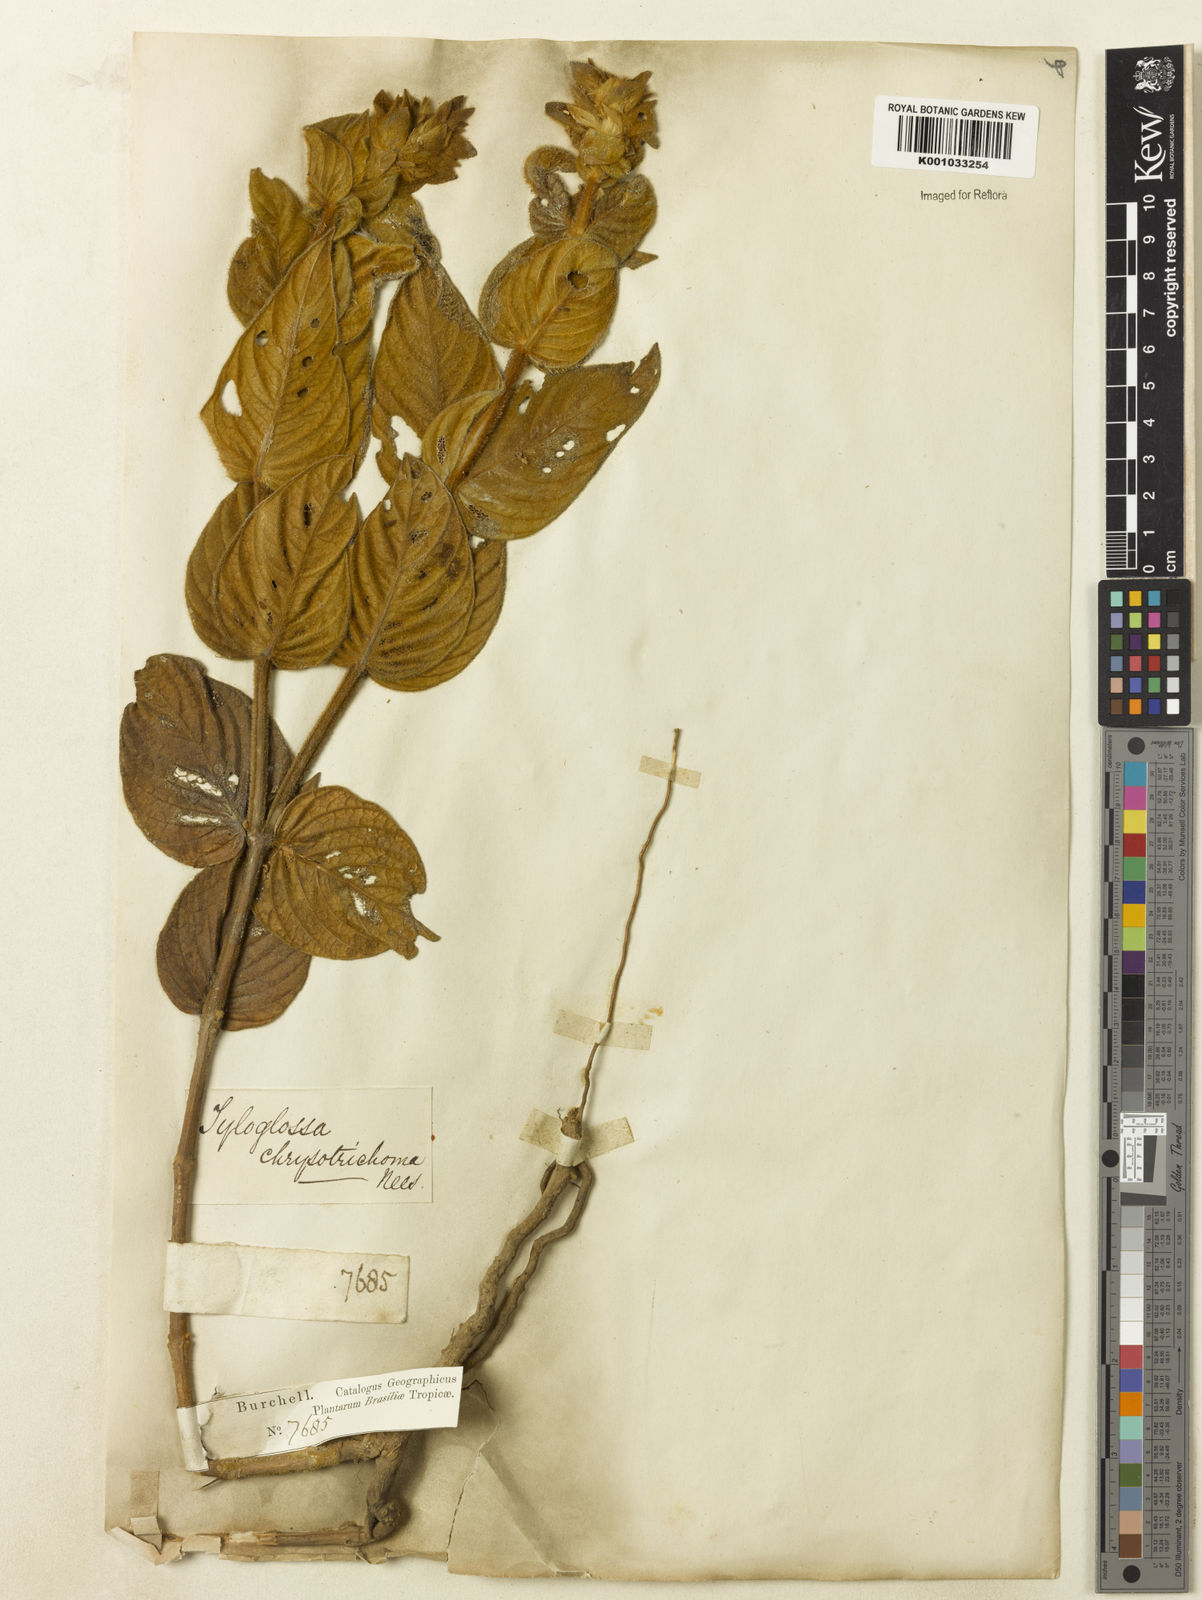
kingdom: Plantae
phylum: Tracheophyta
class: Magnoliopsida
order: Lamiales
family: Acanthaceae
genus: Justicia
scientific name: Justicia chrysotrichoma
